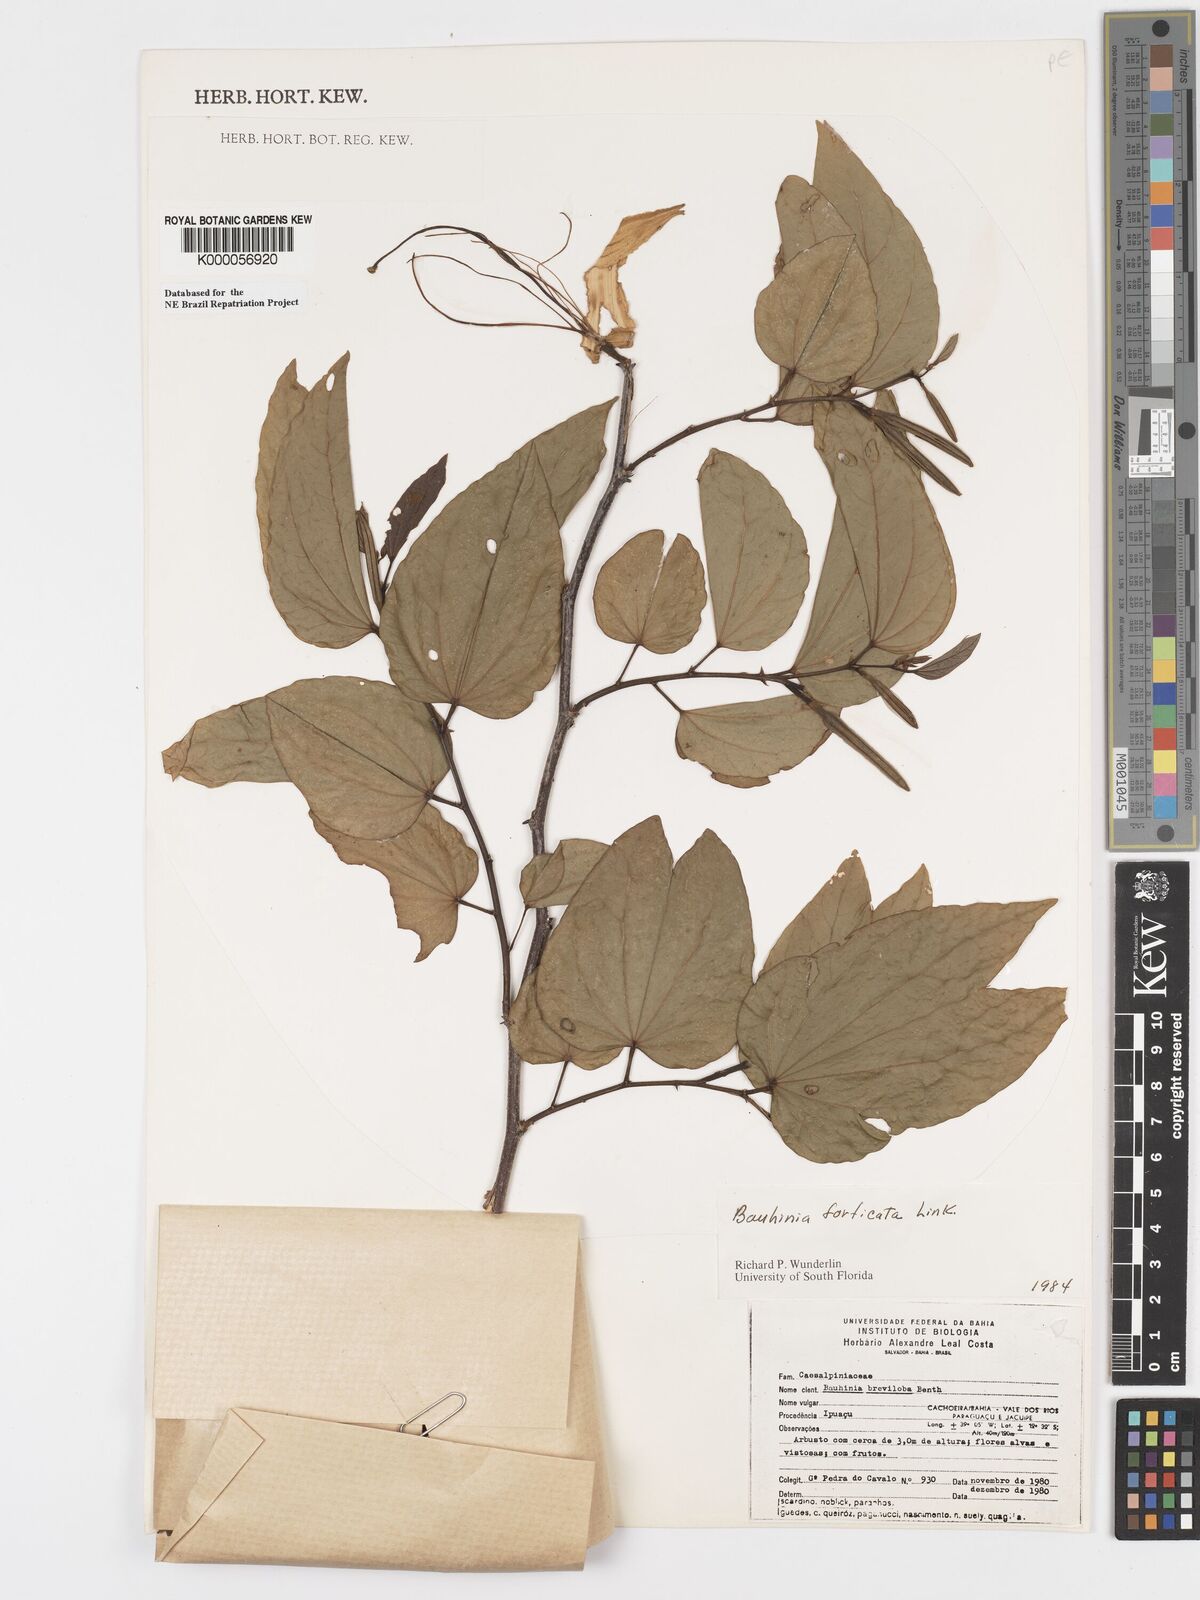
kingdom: Plantae
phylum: Tracheophyta
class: Magnoliopsida
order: Fabales
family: Fabaceae
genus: Bauhinia
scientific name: Bauhinia forficata
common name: Orchid tree
